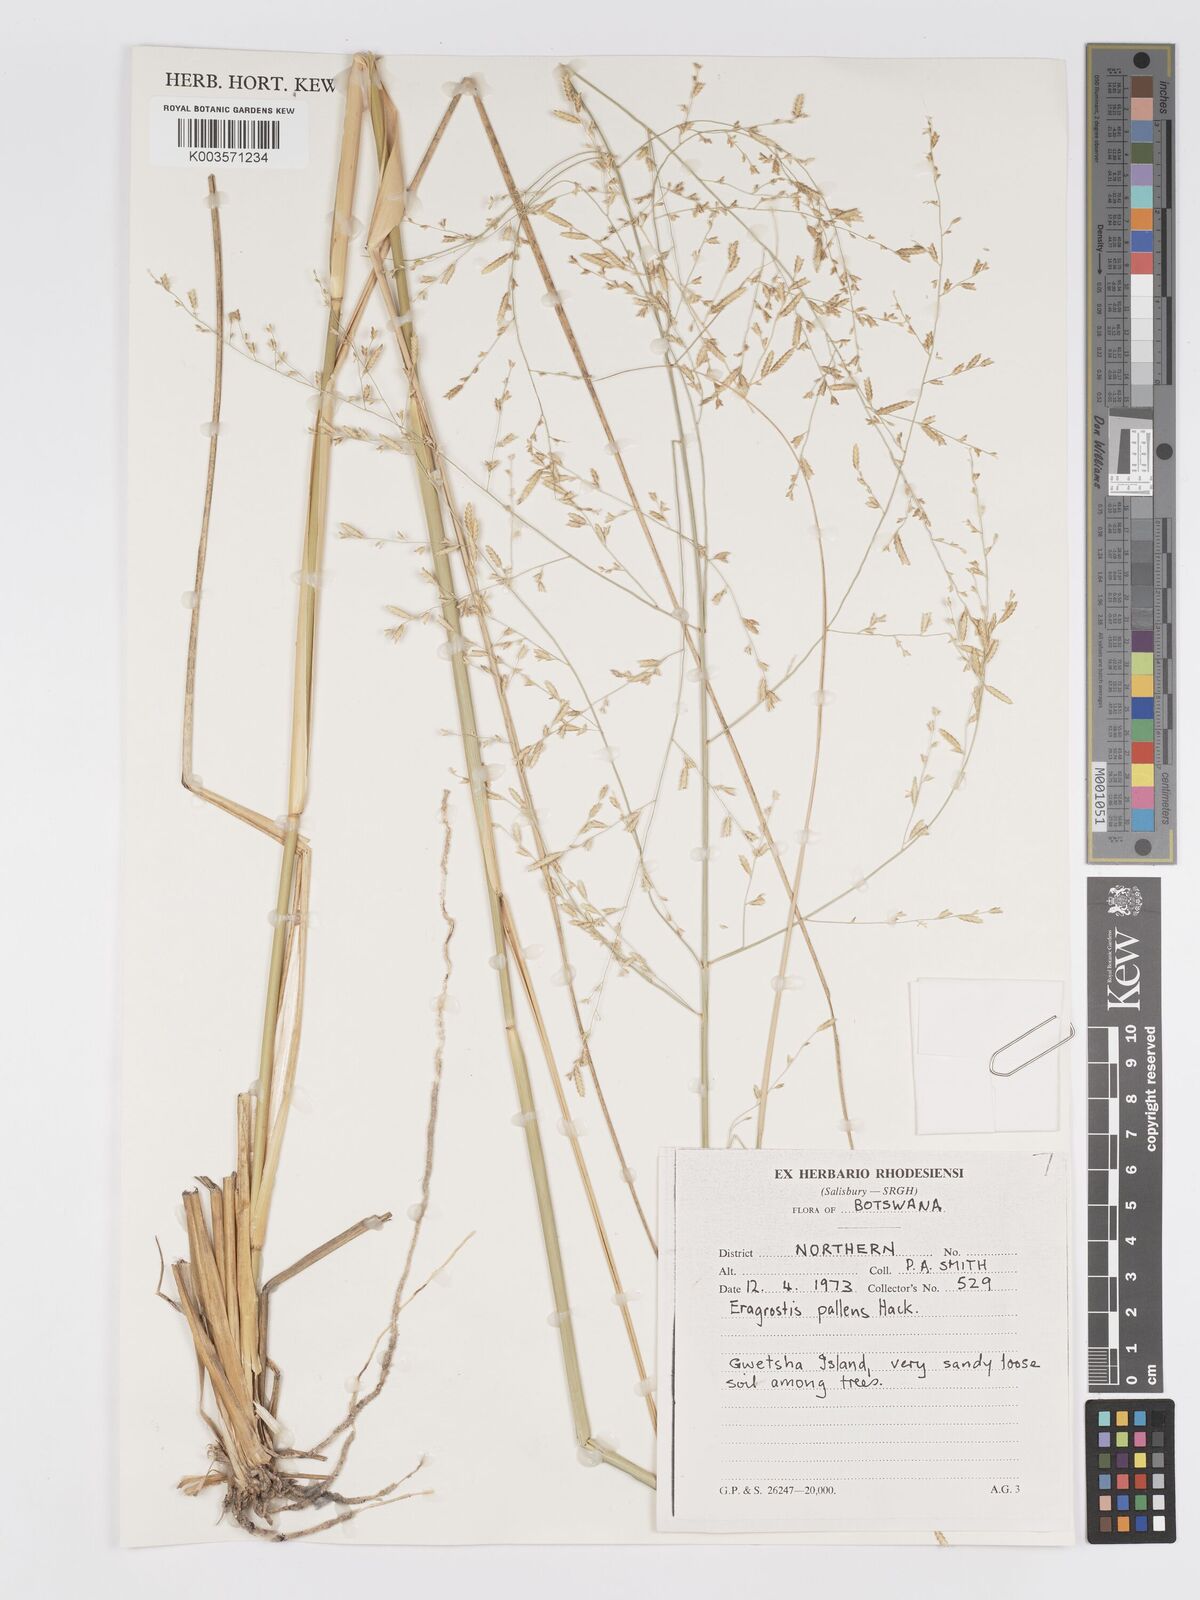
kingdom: Plantae
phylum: Tracheophyta
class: Liliopsida
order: Poales
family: Poaceae
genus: Eragrostis
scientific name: Eragrostis pallens
